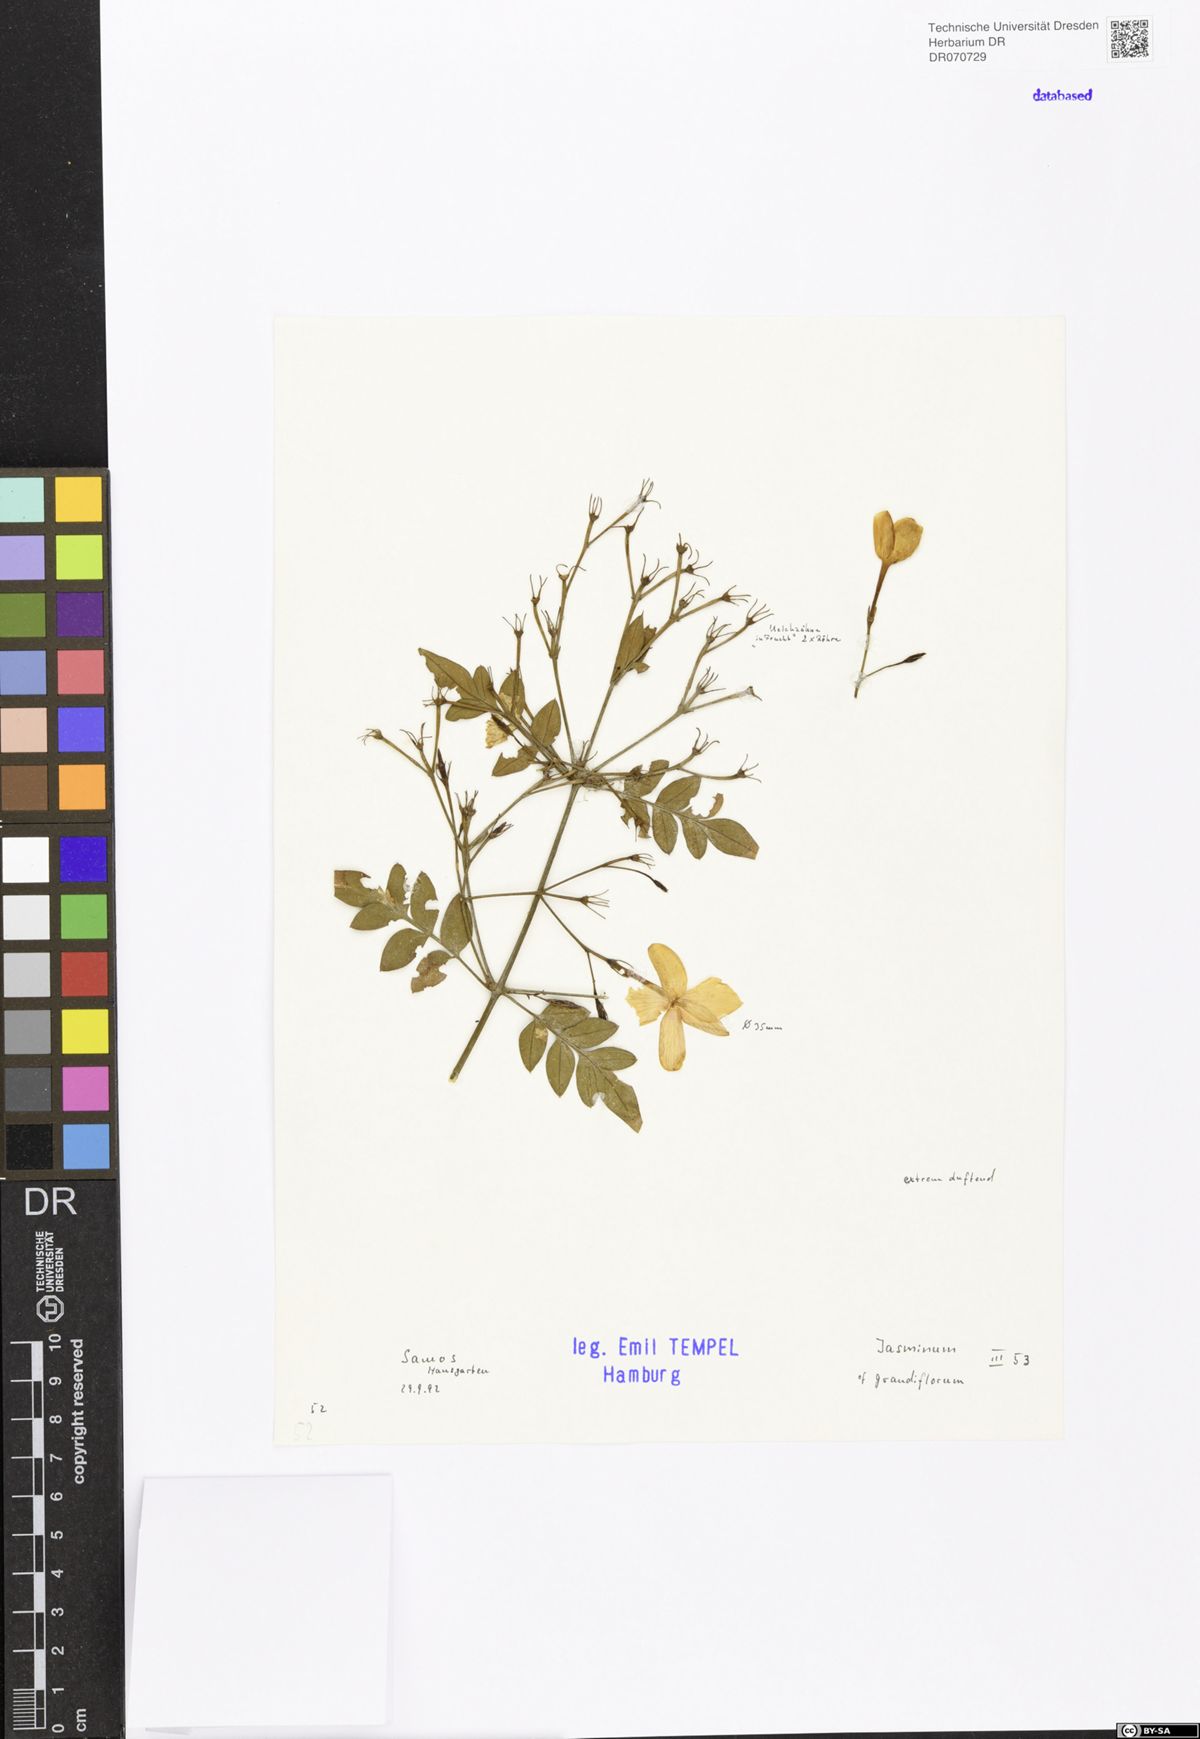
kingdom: Plantae
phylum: Tracheophyta
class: Magnoliopsida
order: Lamiales
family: Oleaceae
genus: Jasminum
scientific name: Jasminum grandiflorum
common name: Catalonian jasmine
